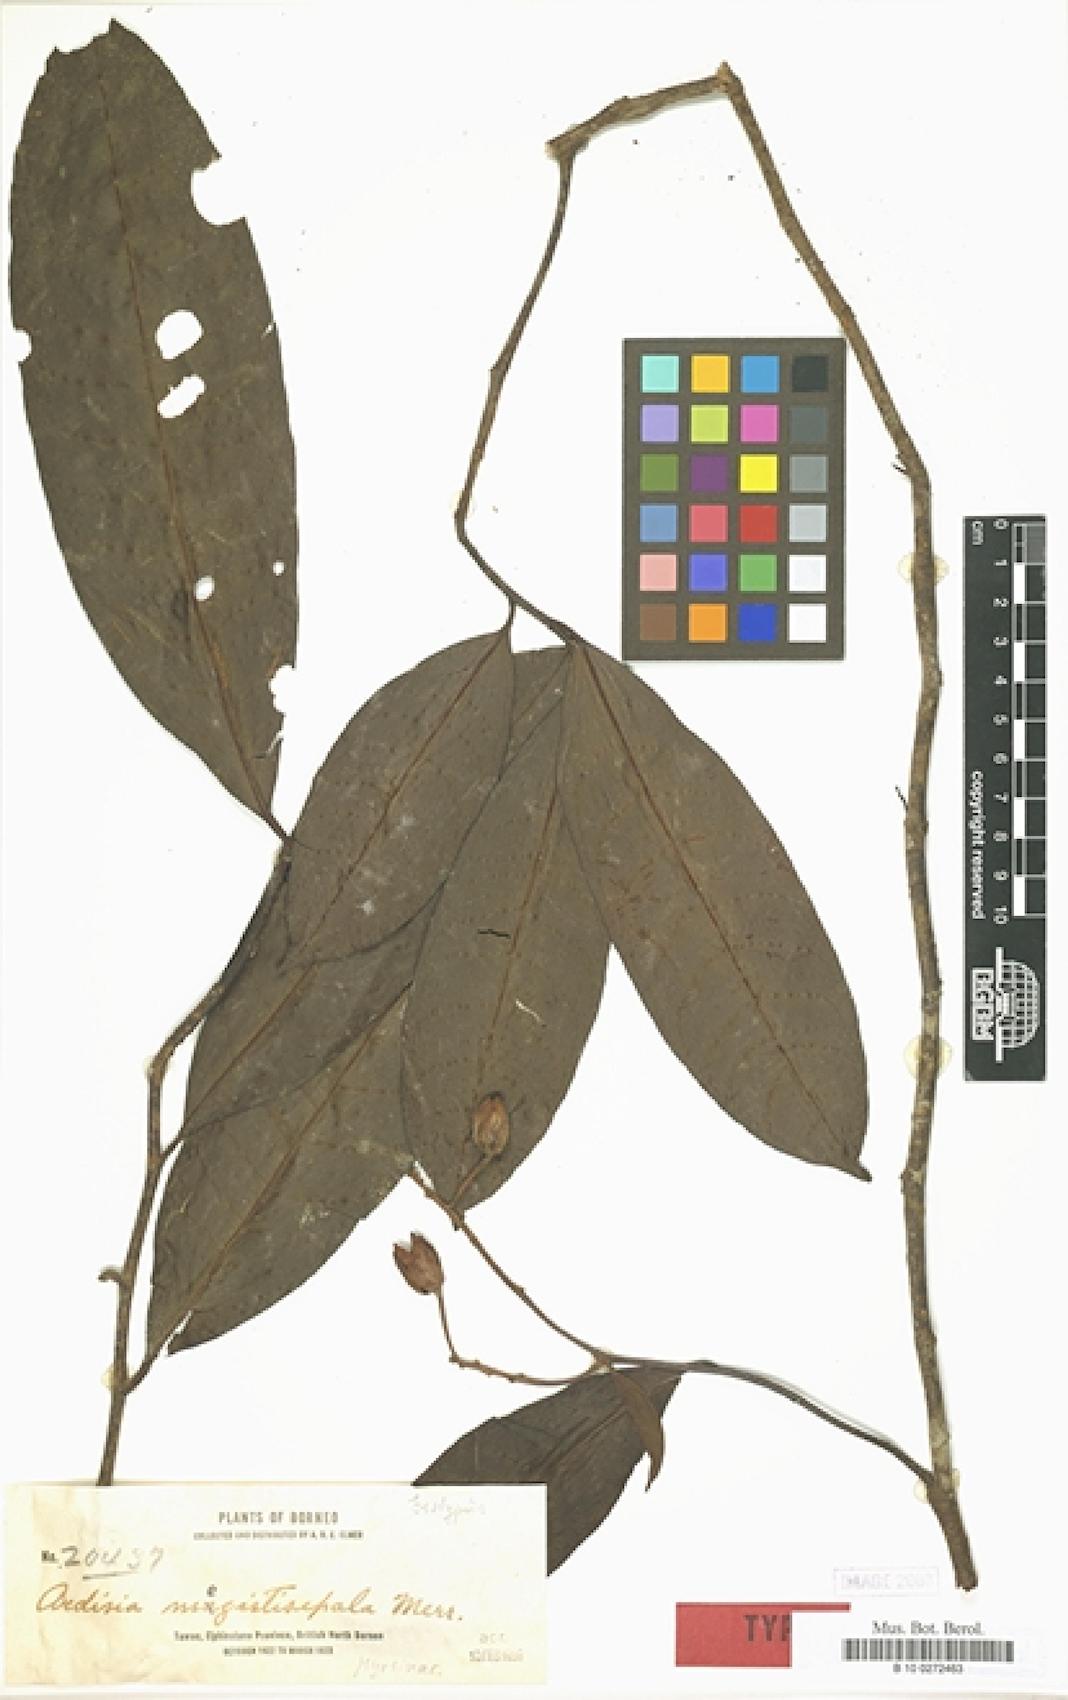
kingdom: Plantae
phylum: Tracheophyta
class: Magnoliopsida
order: Ericales
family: Primulaceae
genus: Ardisia
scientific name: Ardisia megistosepala
